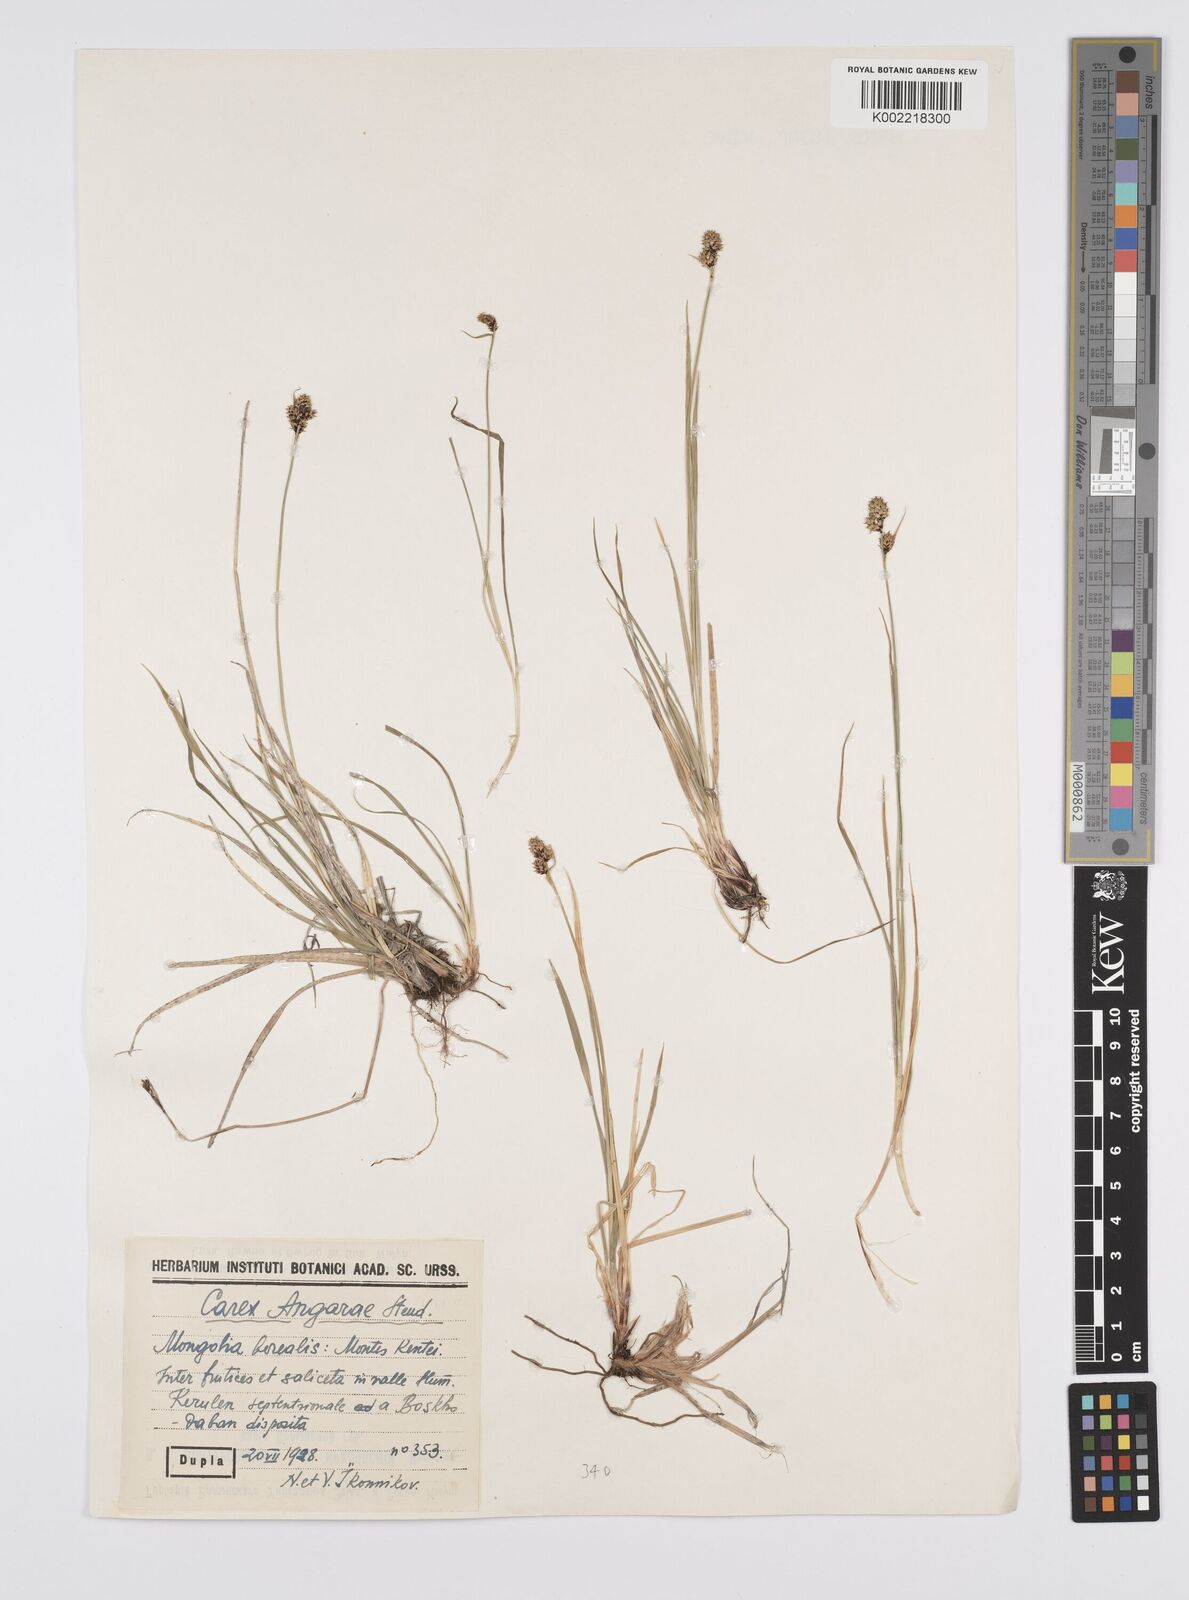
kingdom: Plantae
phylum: Tracheophyta
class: Liliopsida
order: Poales
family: Cyperaceae
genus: Carex
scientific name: Carex nigra
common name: Common sedge
